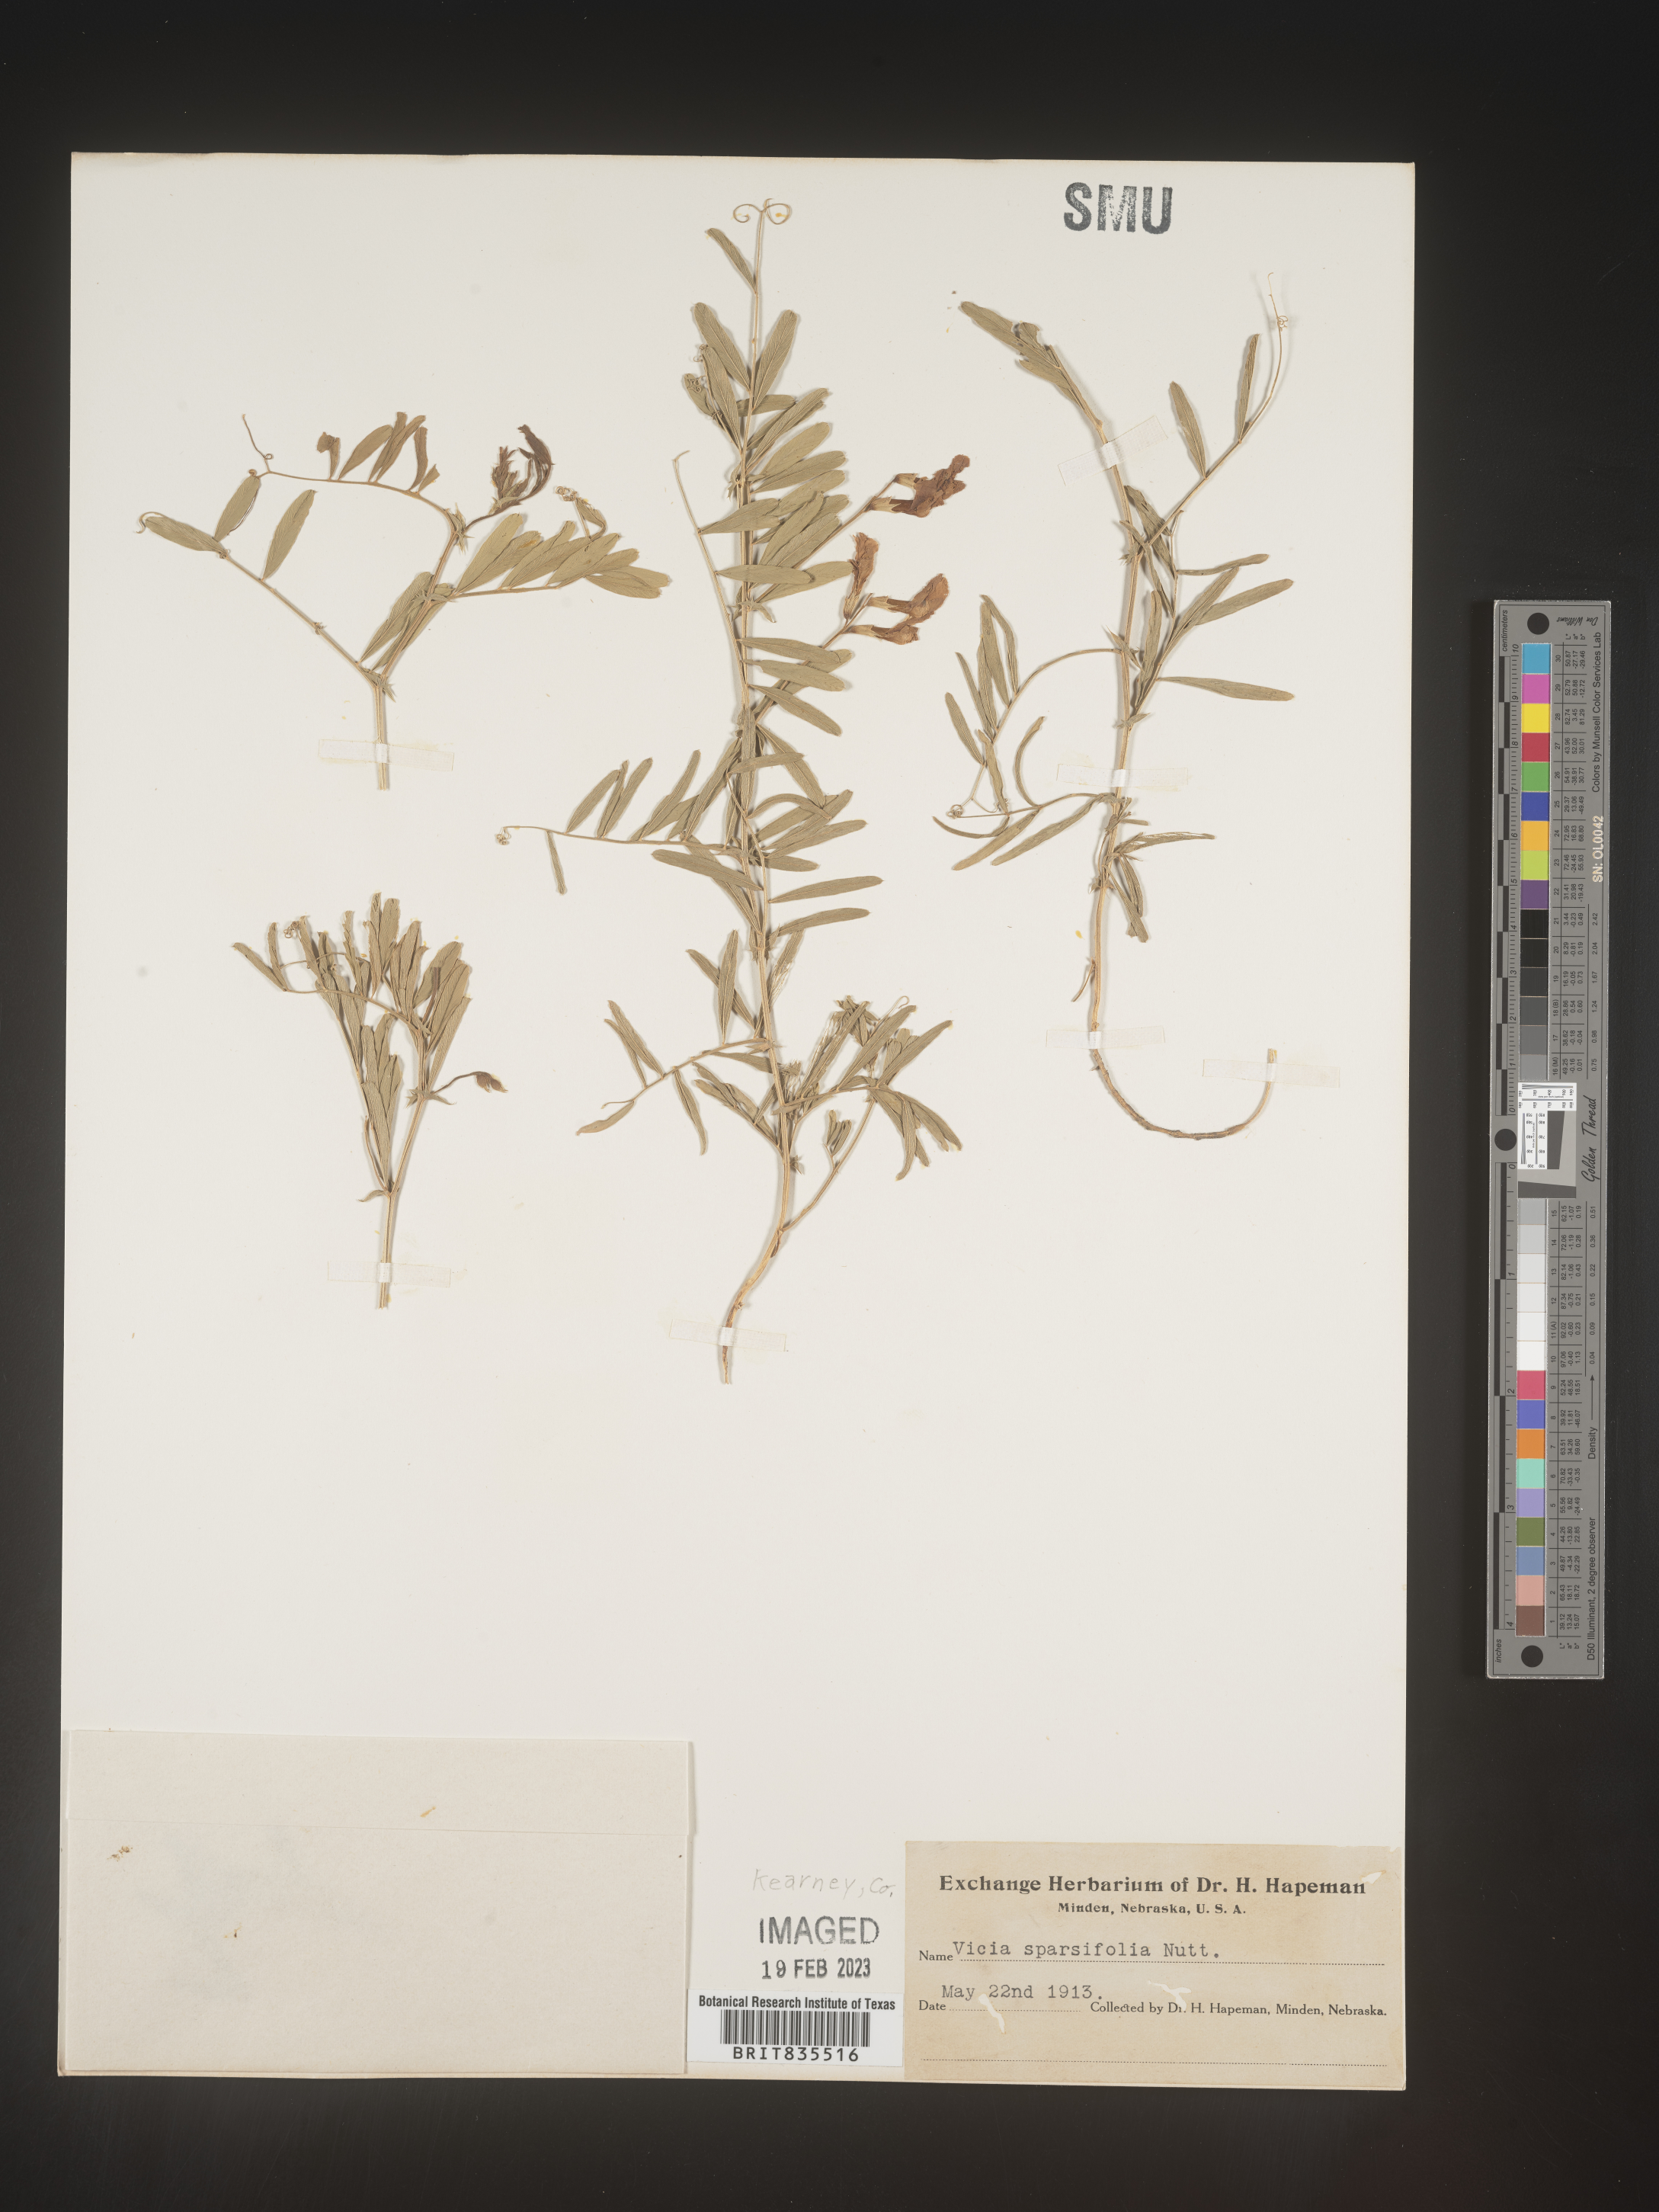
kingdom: Plantae
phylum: Tracheophyta
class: Magnoliopsida
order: Fabales
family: Fabaceae
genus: Vicia
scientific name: Vicia americana
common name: American vetch
